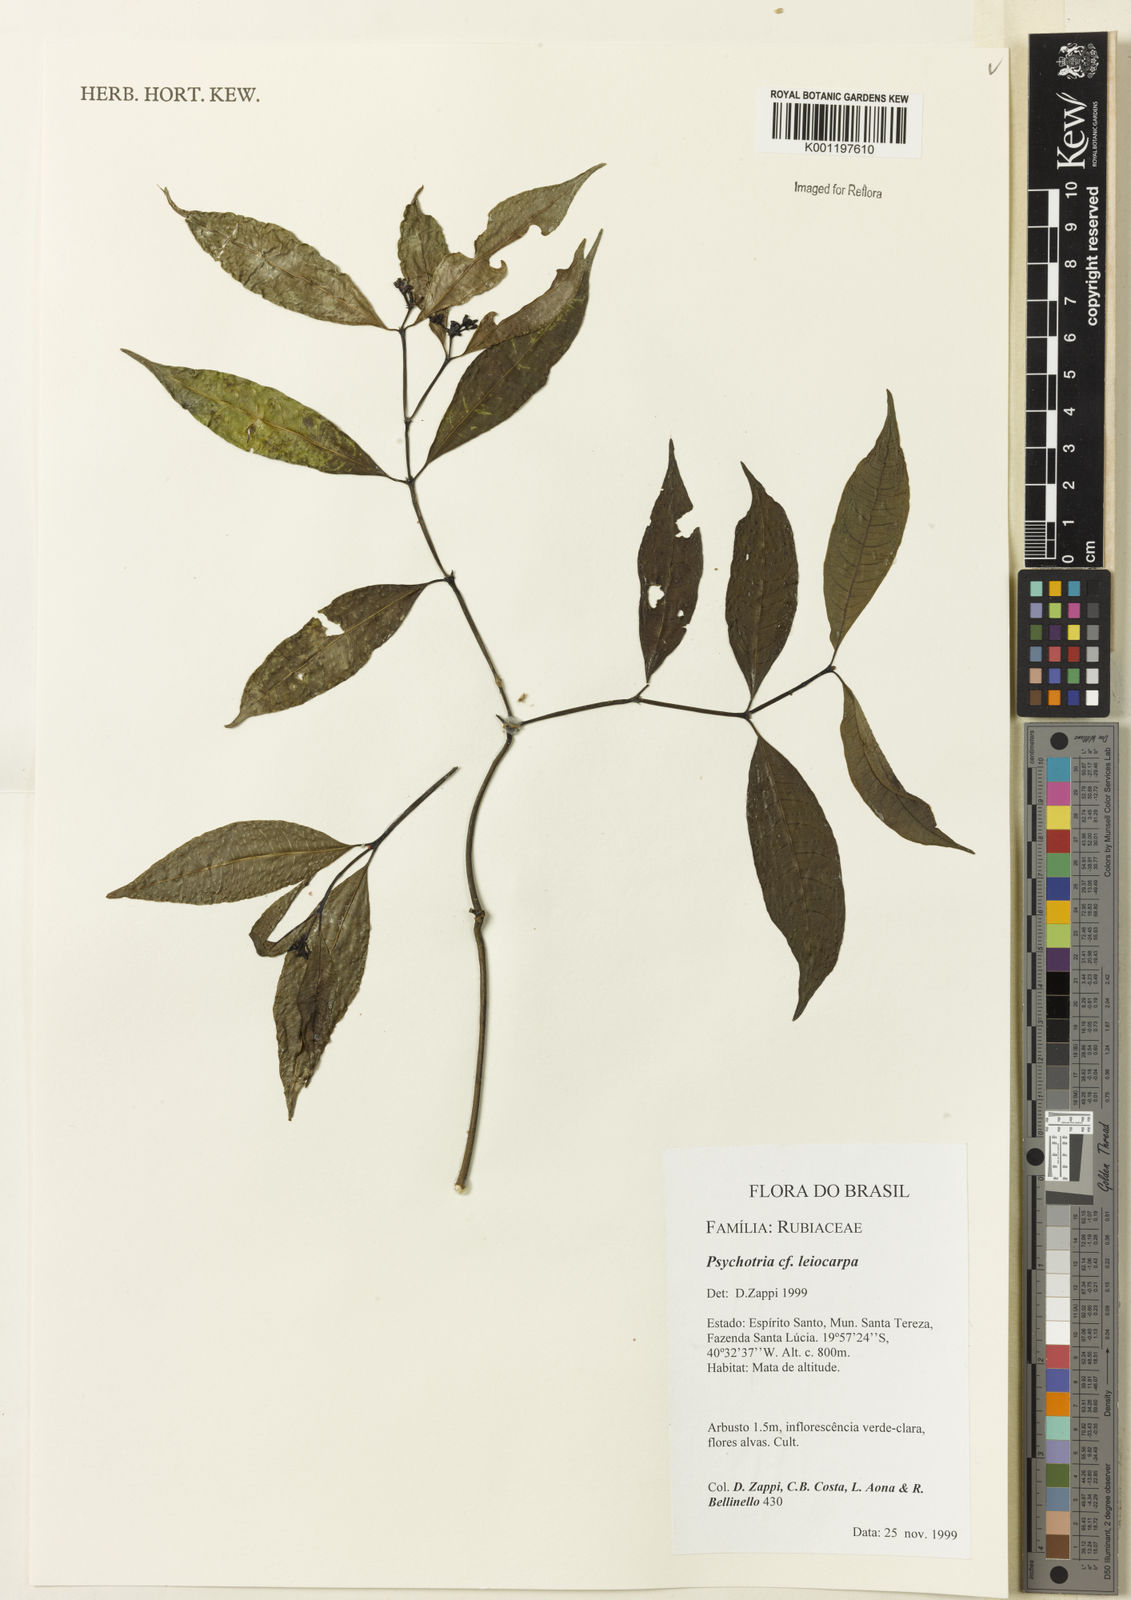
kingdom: Plantae
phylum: Tracheophyta
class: Magnoliopsida
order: Gentianales
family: Rubiaceae
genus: Psychotria
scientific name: Psychotria leiocarpa
